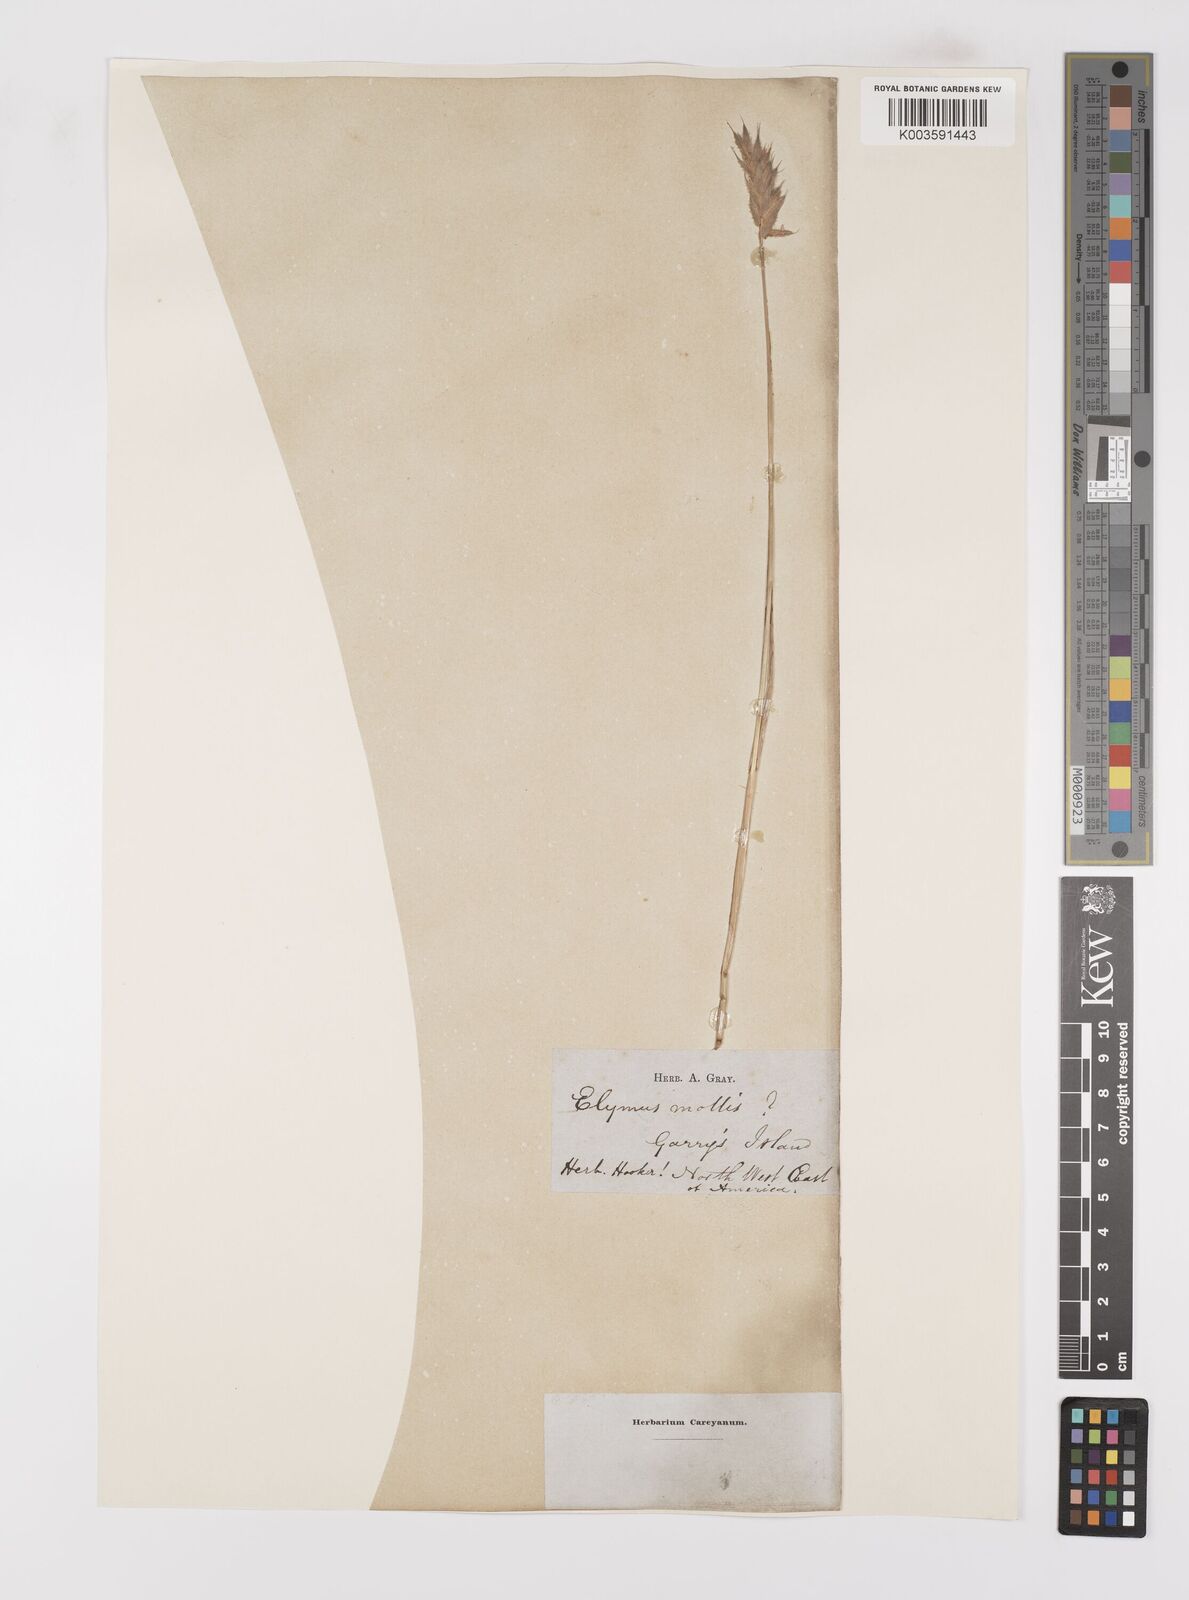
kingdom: Plantae
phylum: Tracheophyta
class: Liliopsida
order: Poales
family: Poaceae
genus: Leymus
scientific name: Leymus mollis
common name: American dune grass
